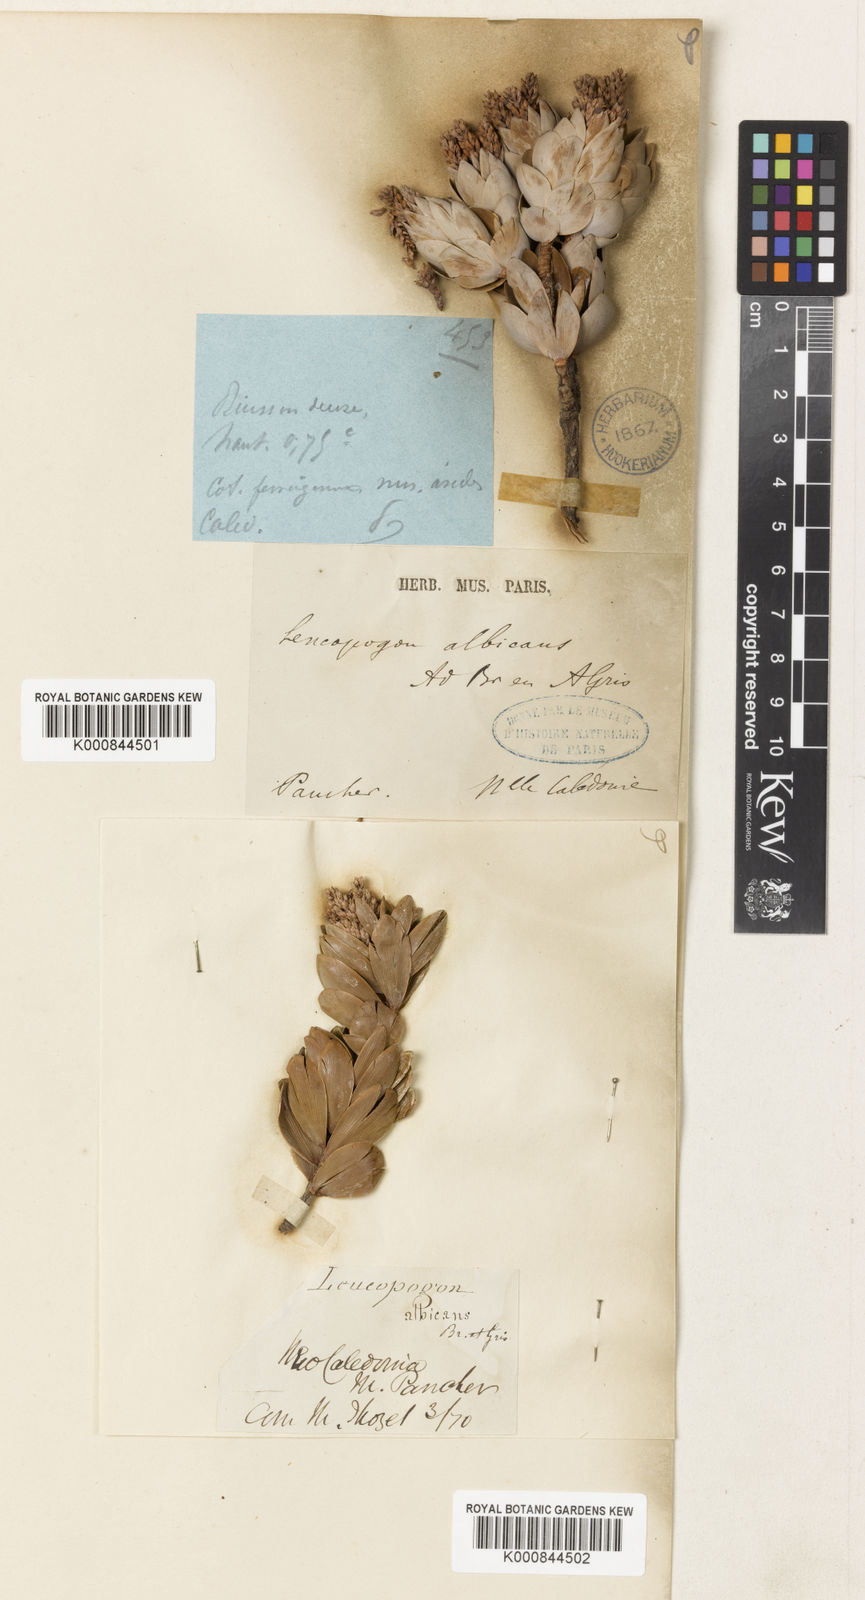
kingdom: Plantae
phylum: Tracheophyta
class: Magnoliopsida
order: Ericales
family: Ericaceae
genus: Cyathopsis
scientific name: Cyathopsis albicans
